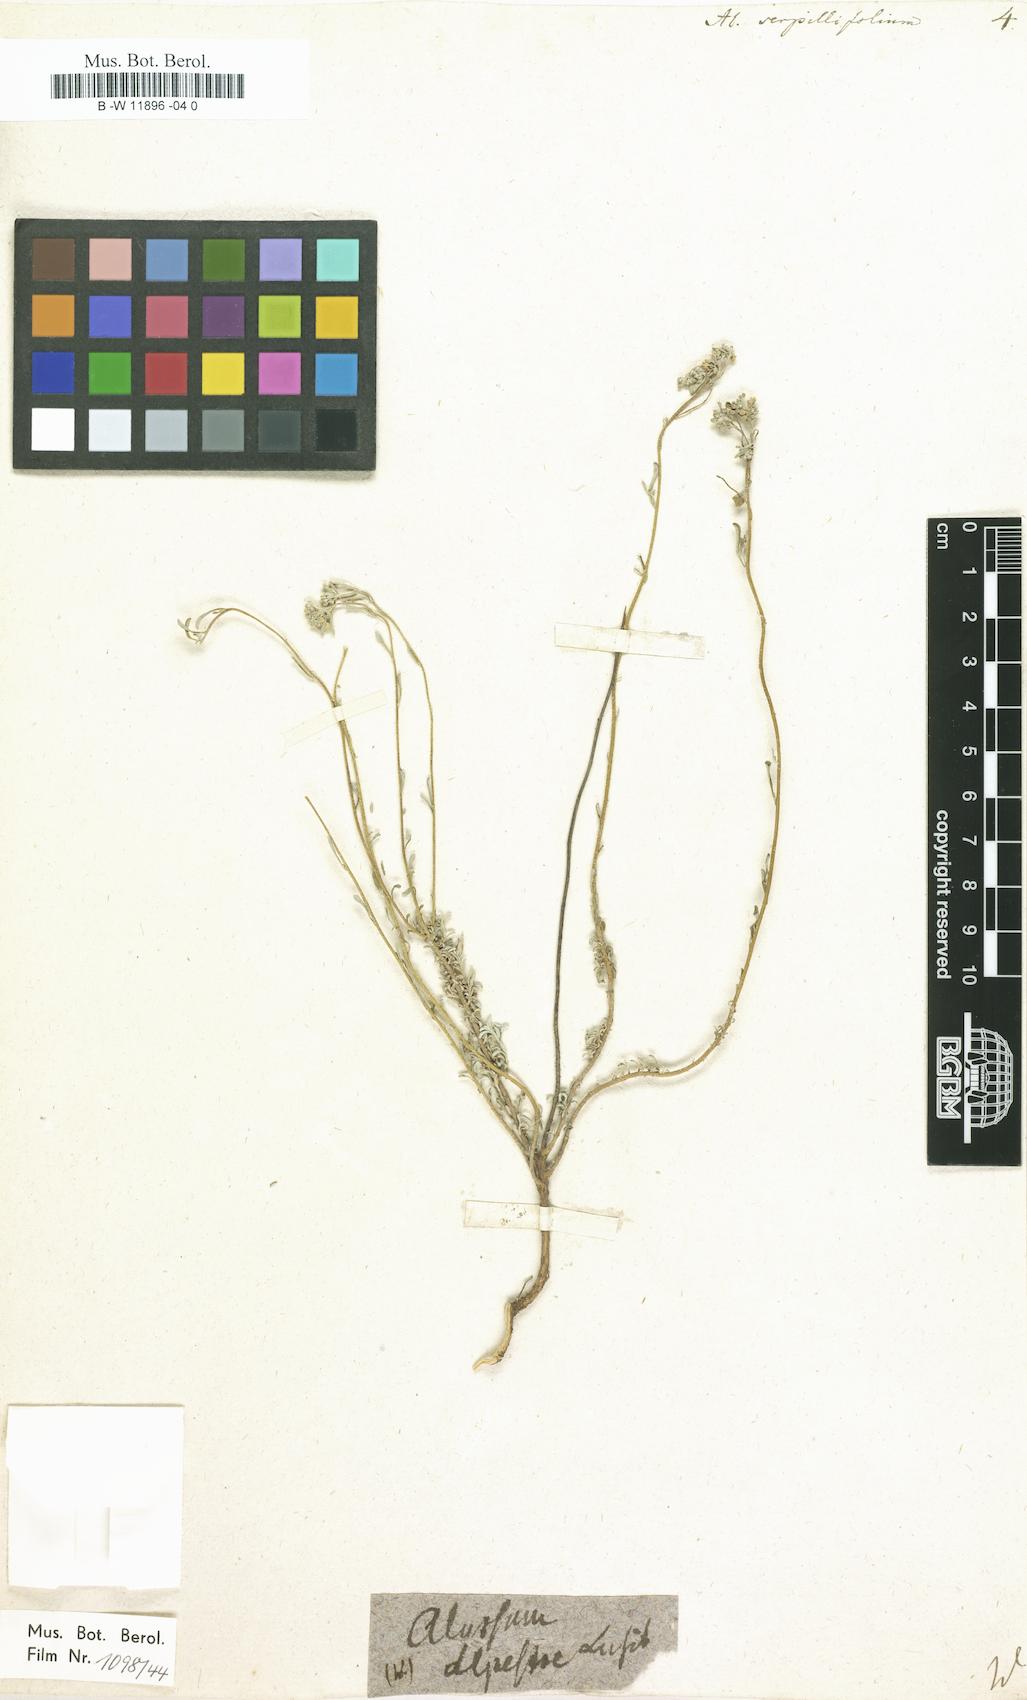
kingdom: Plantae
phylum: Tracheophyta
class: Magnoliopsida
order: Brassicales
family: Brassicaceae
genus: Odontarrhena
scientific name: Odontarrhena serpyllifolia
